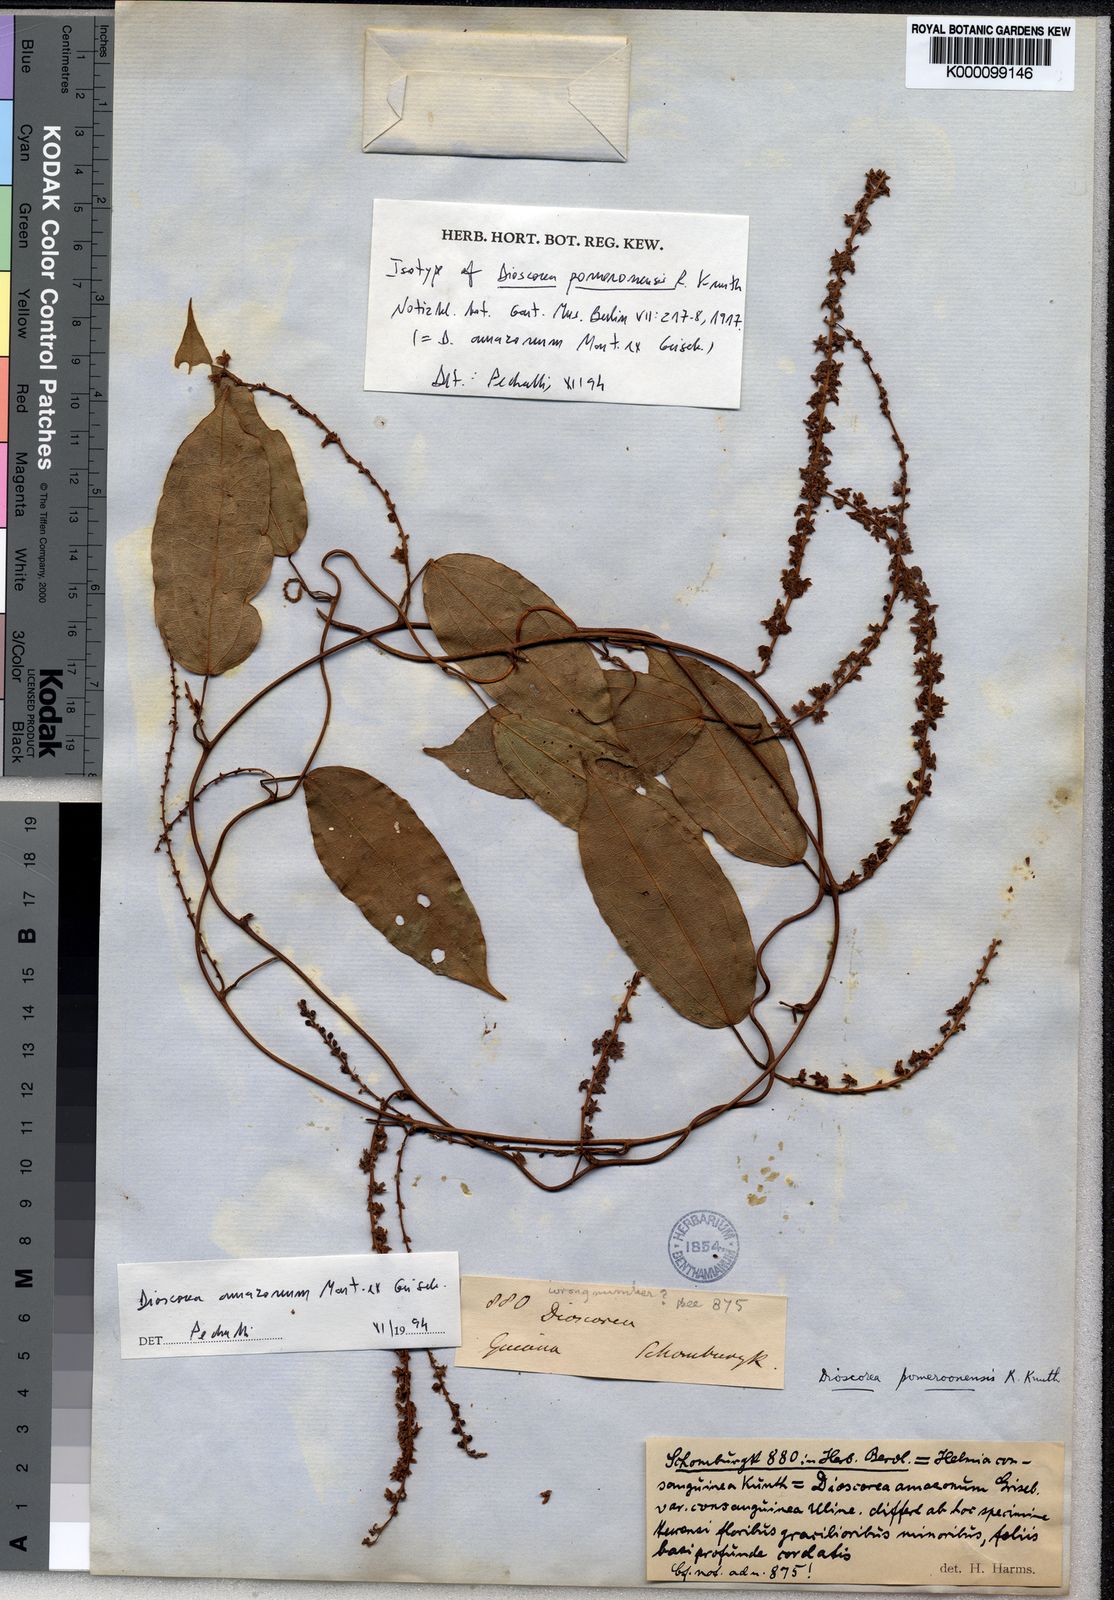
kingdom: Plantae
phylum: Tracheophyta
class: Liliopsida
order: Dioscoreales
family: Dioscoreaceae
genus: Dioscorea
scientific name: Dioscorea pomeroonensis
